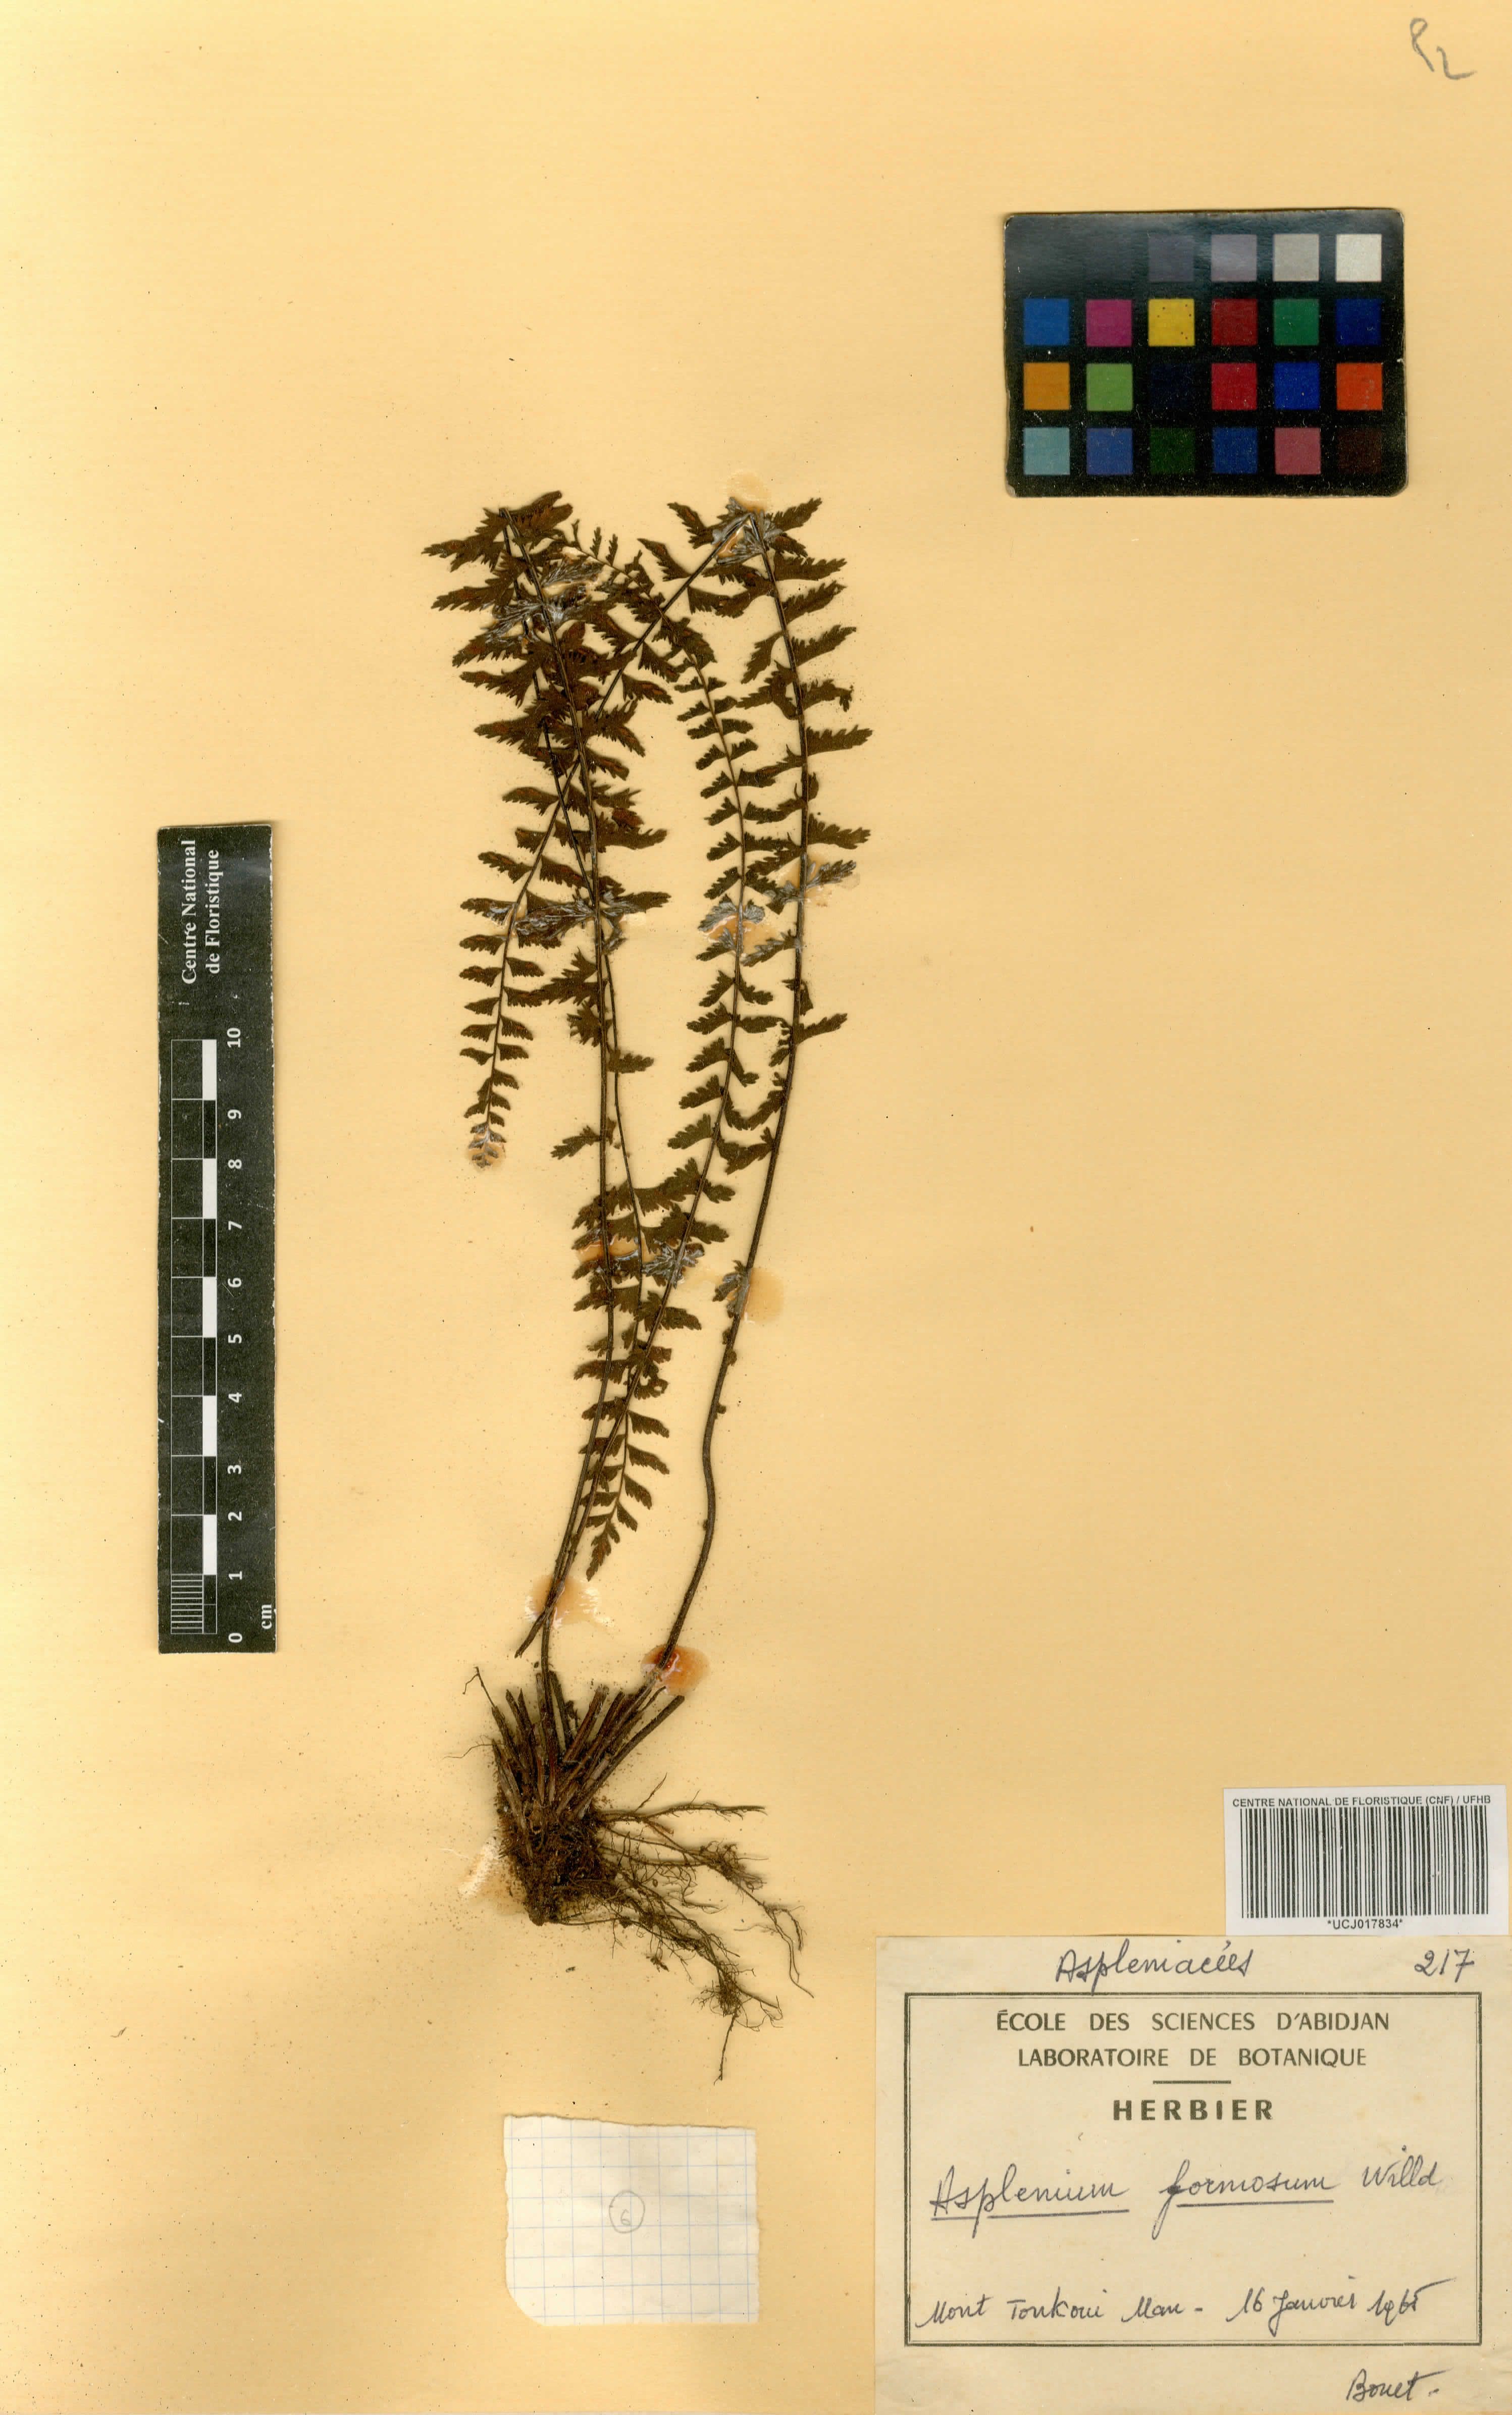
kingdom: Plantae
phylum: Tracheophyta
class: Polypodiopsida
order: Polypodiales
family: Aspleniaceae
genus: Asplenium
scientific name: Asplenium formosum
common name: Showy spleenwort
